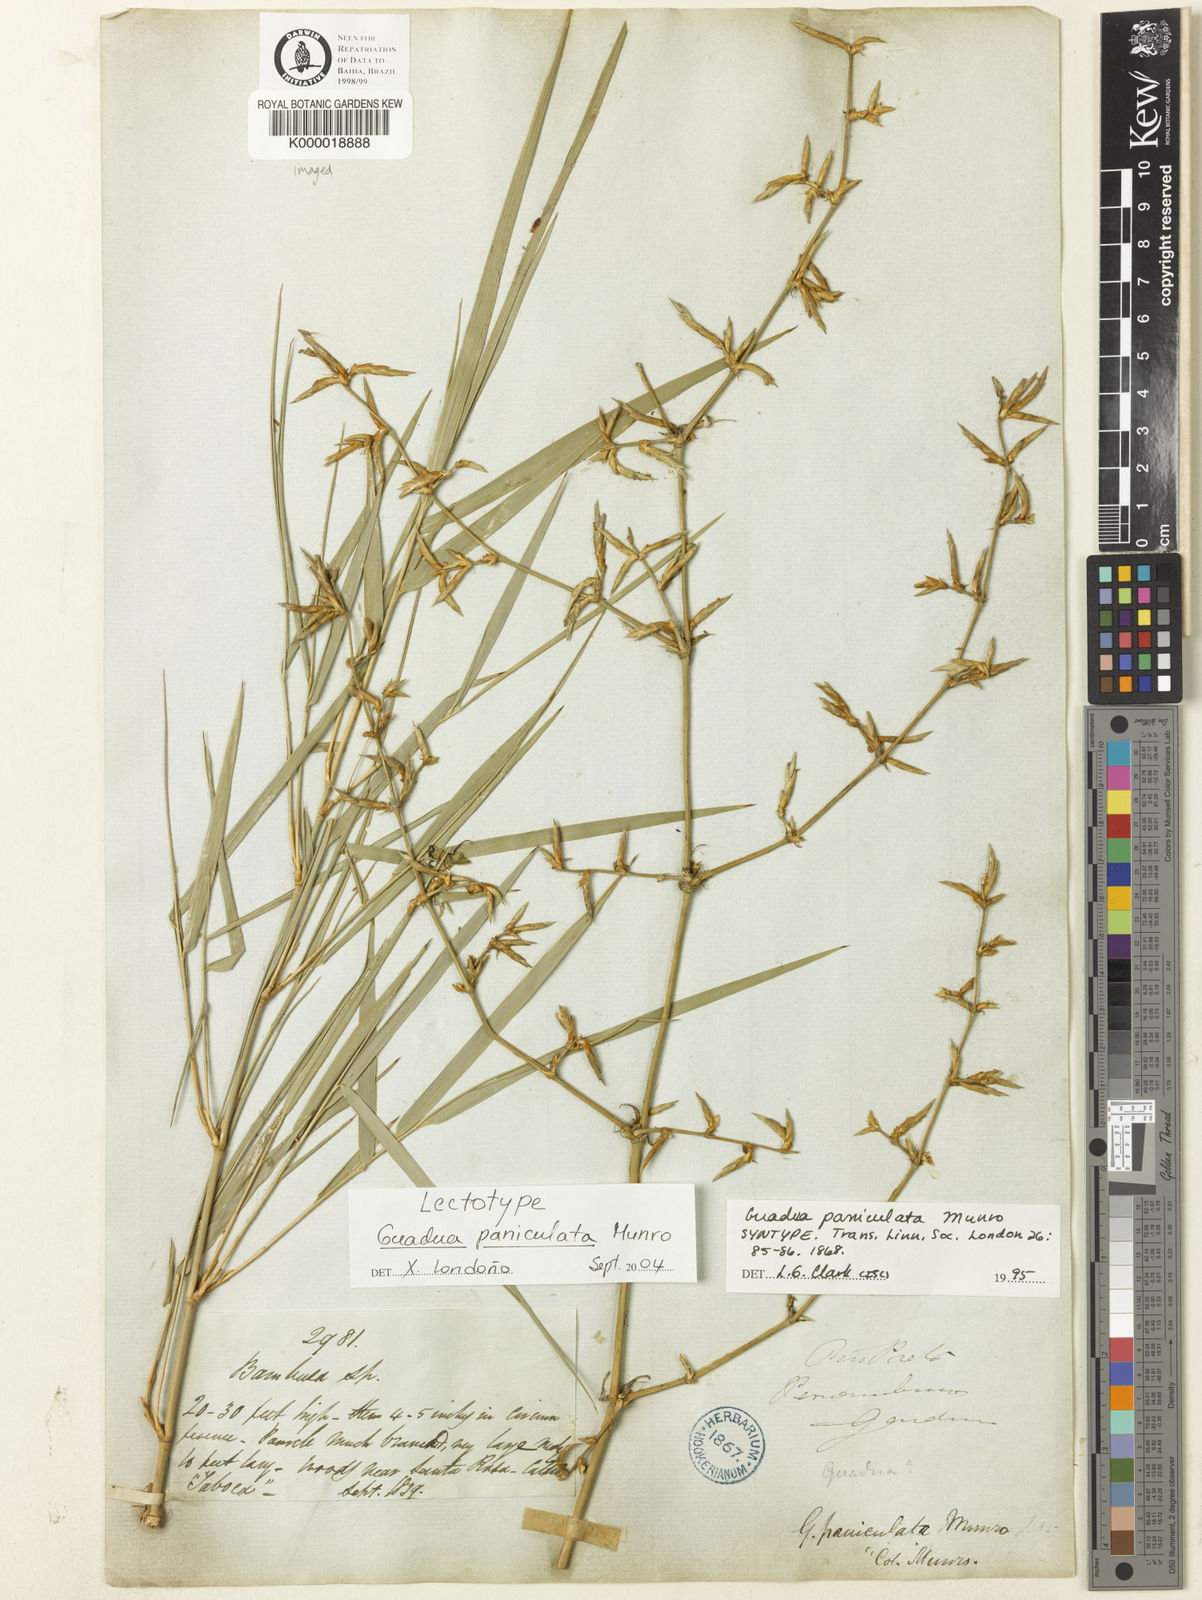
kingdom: Plantae
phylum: Tracheophyta
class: Liliopsida
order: Poales
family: Poaceae
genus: Guadua
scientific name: Guadua paniculata
